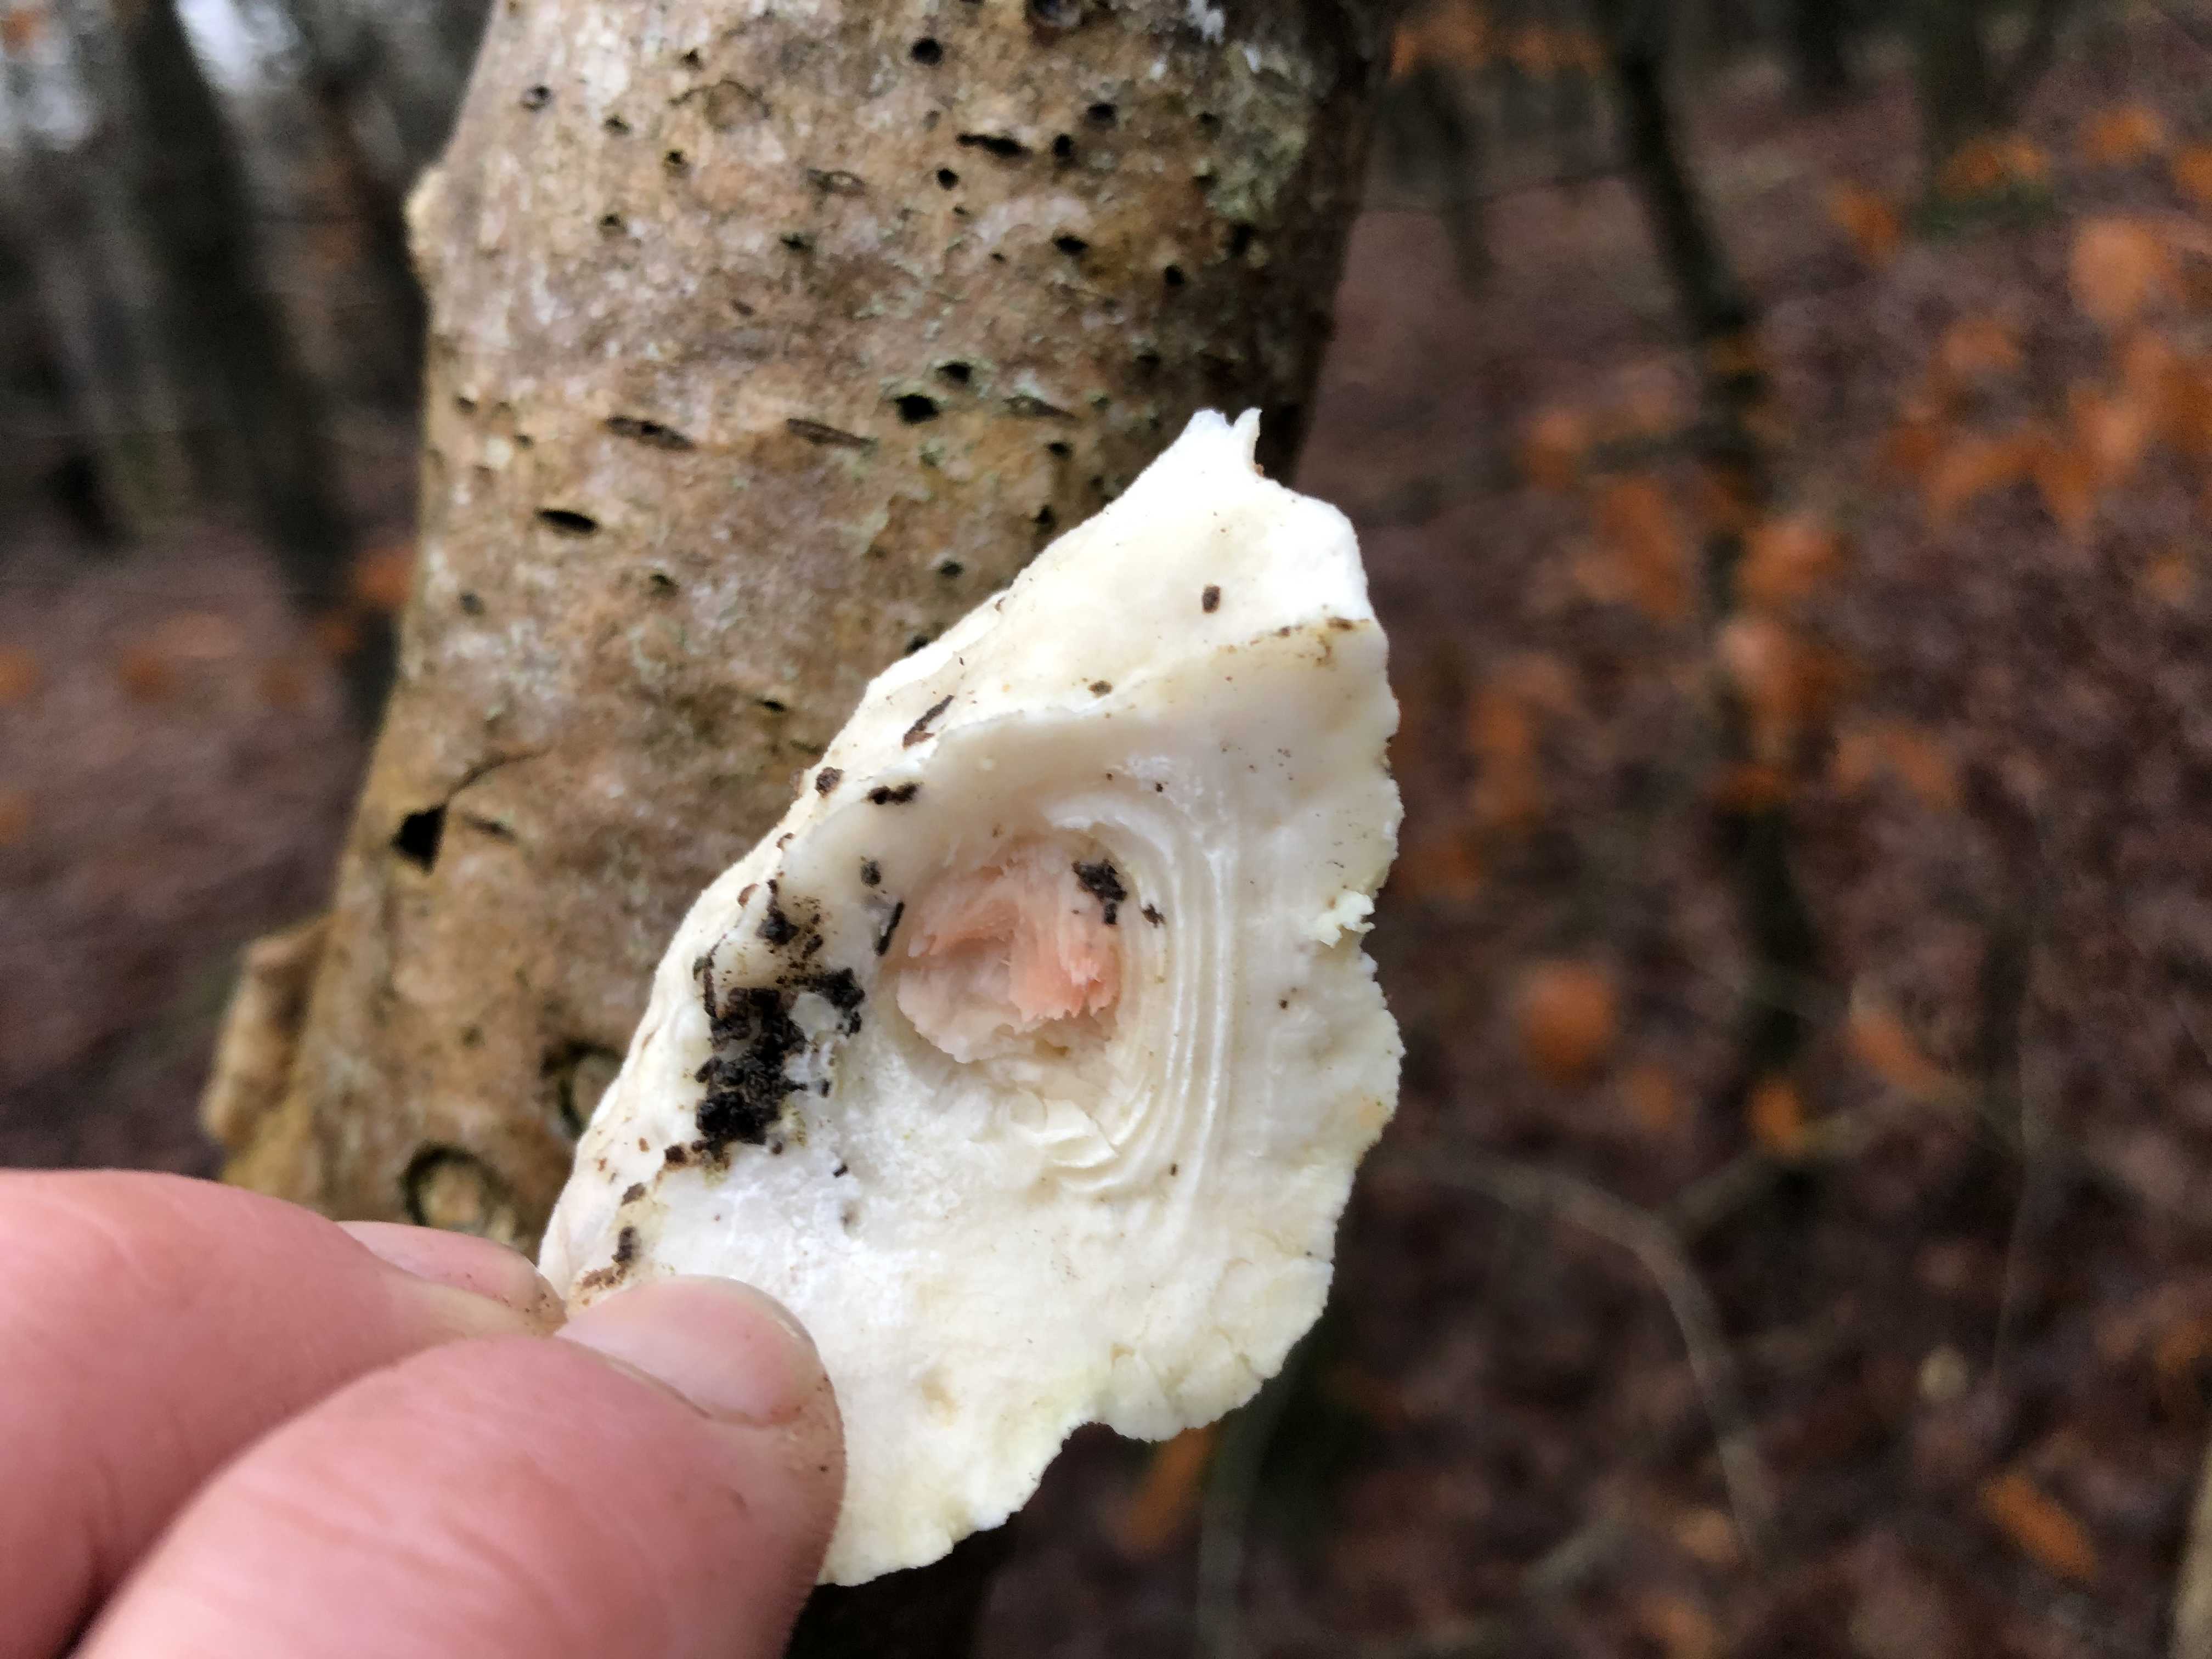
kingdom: Fungi
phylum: Basidiomycota
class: Agaricomycetes
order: Polyporales
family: Incrustoporiaceae
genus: Tyromyces
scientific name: Tyromyces lacteus
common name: mælkehvid kødporesvamp
